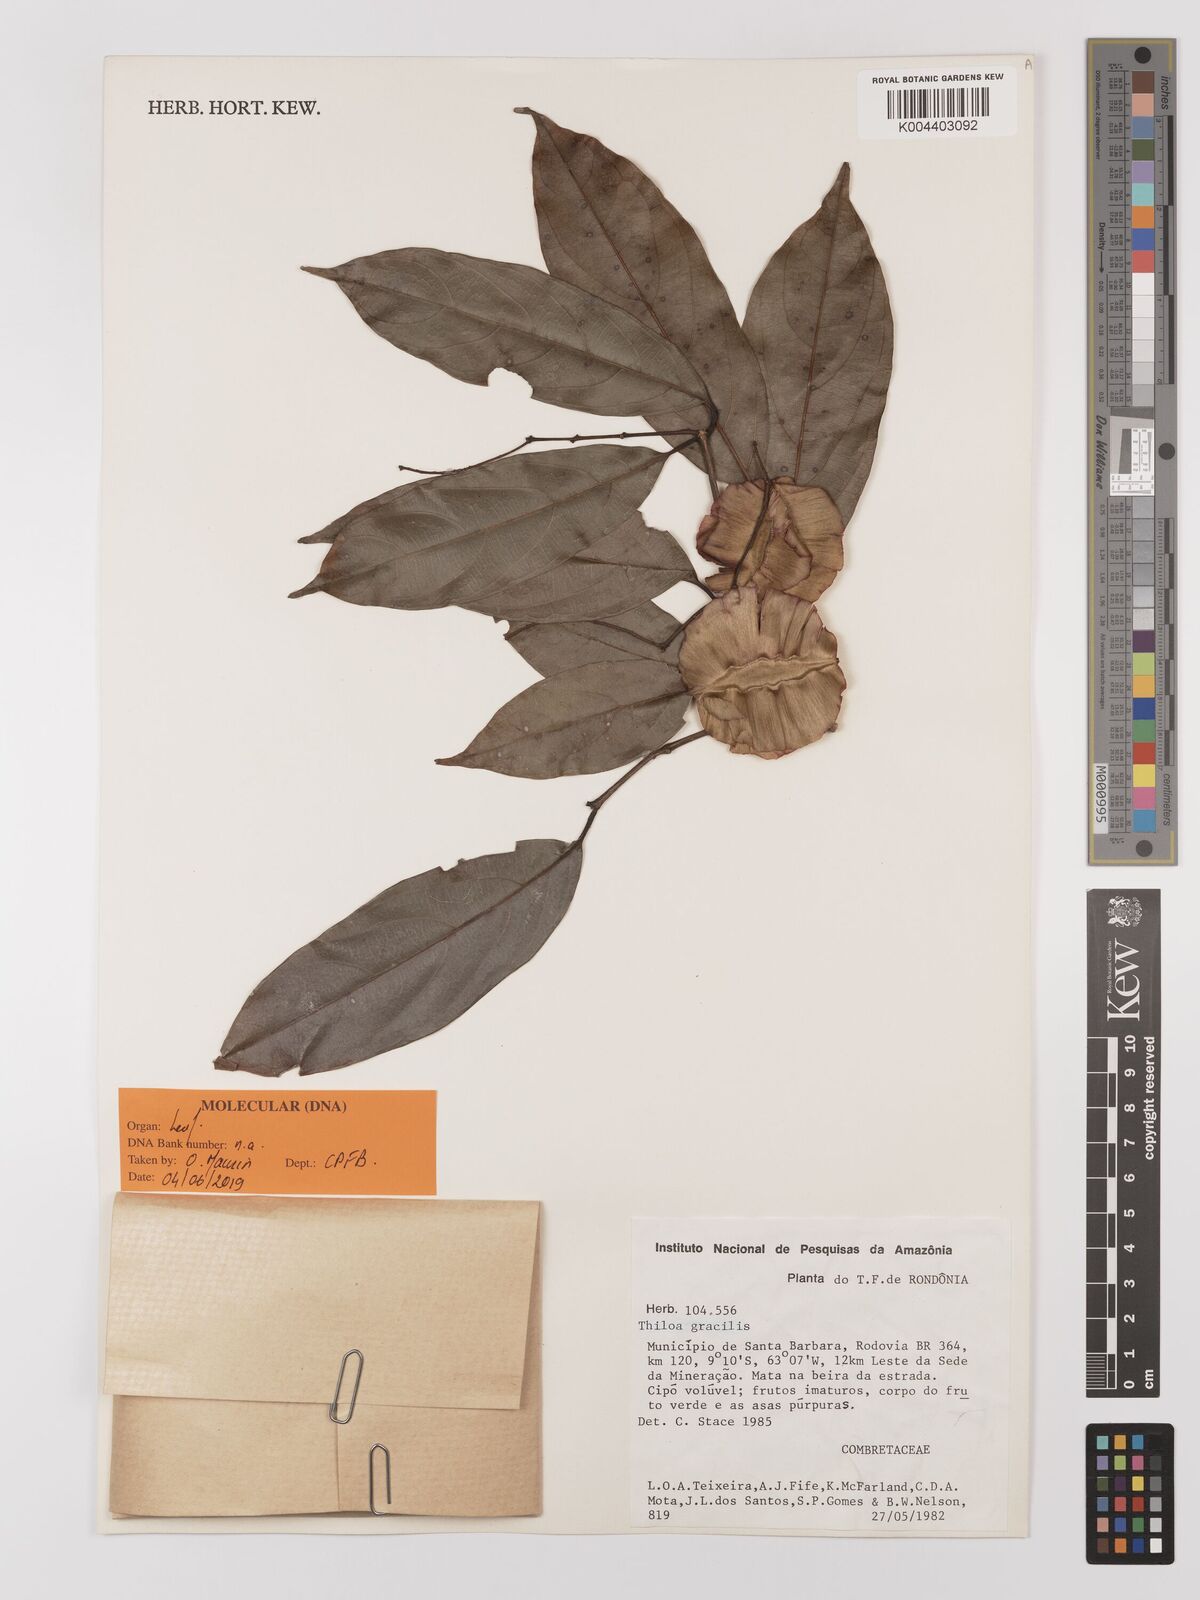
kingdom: Plantae
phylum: Tracheophyta
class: Magnoliopsida
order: Myrtales
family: Combretaceae
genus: Combretum
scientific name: Combretum gracile
